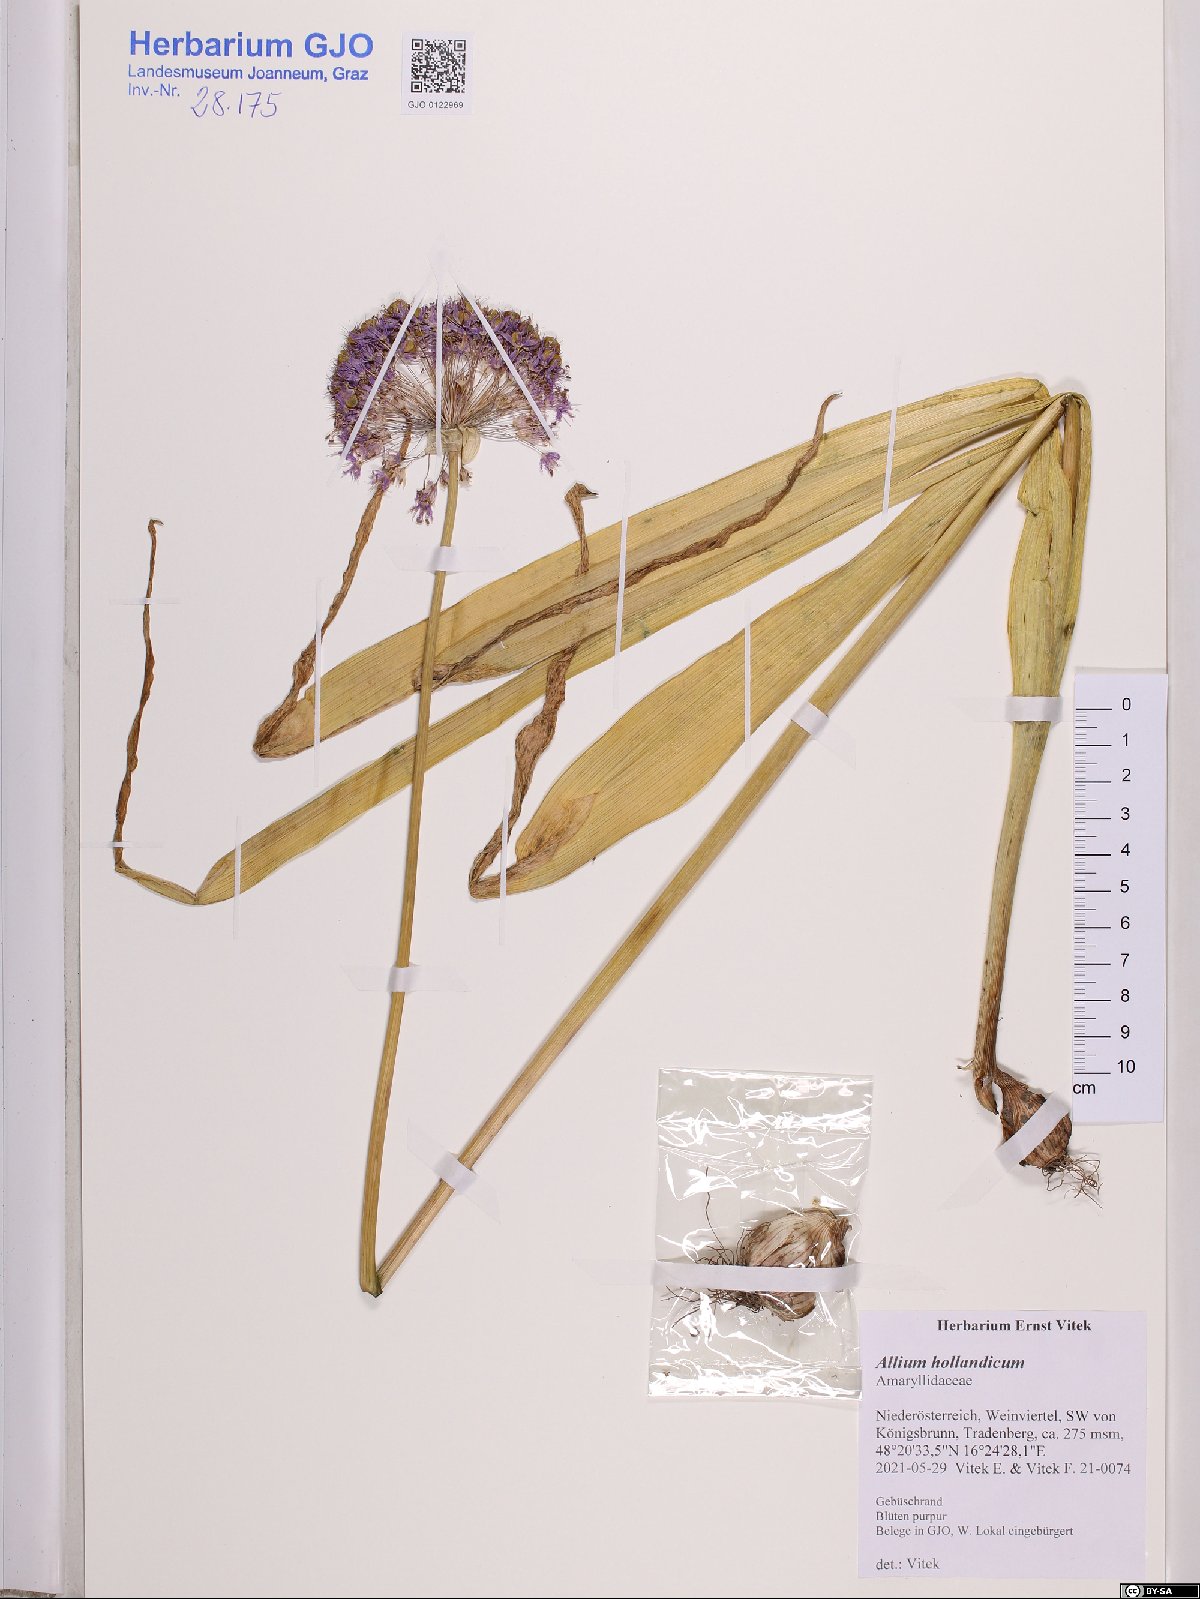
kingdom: Plantae
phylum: Tracheophyta
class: Liliopsida
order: Asparagales
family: Amaryllidaceae
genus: Allium
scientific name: Allium hollandicum
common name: Persian onion
